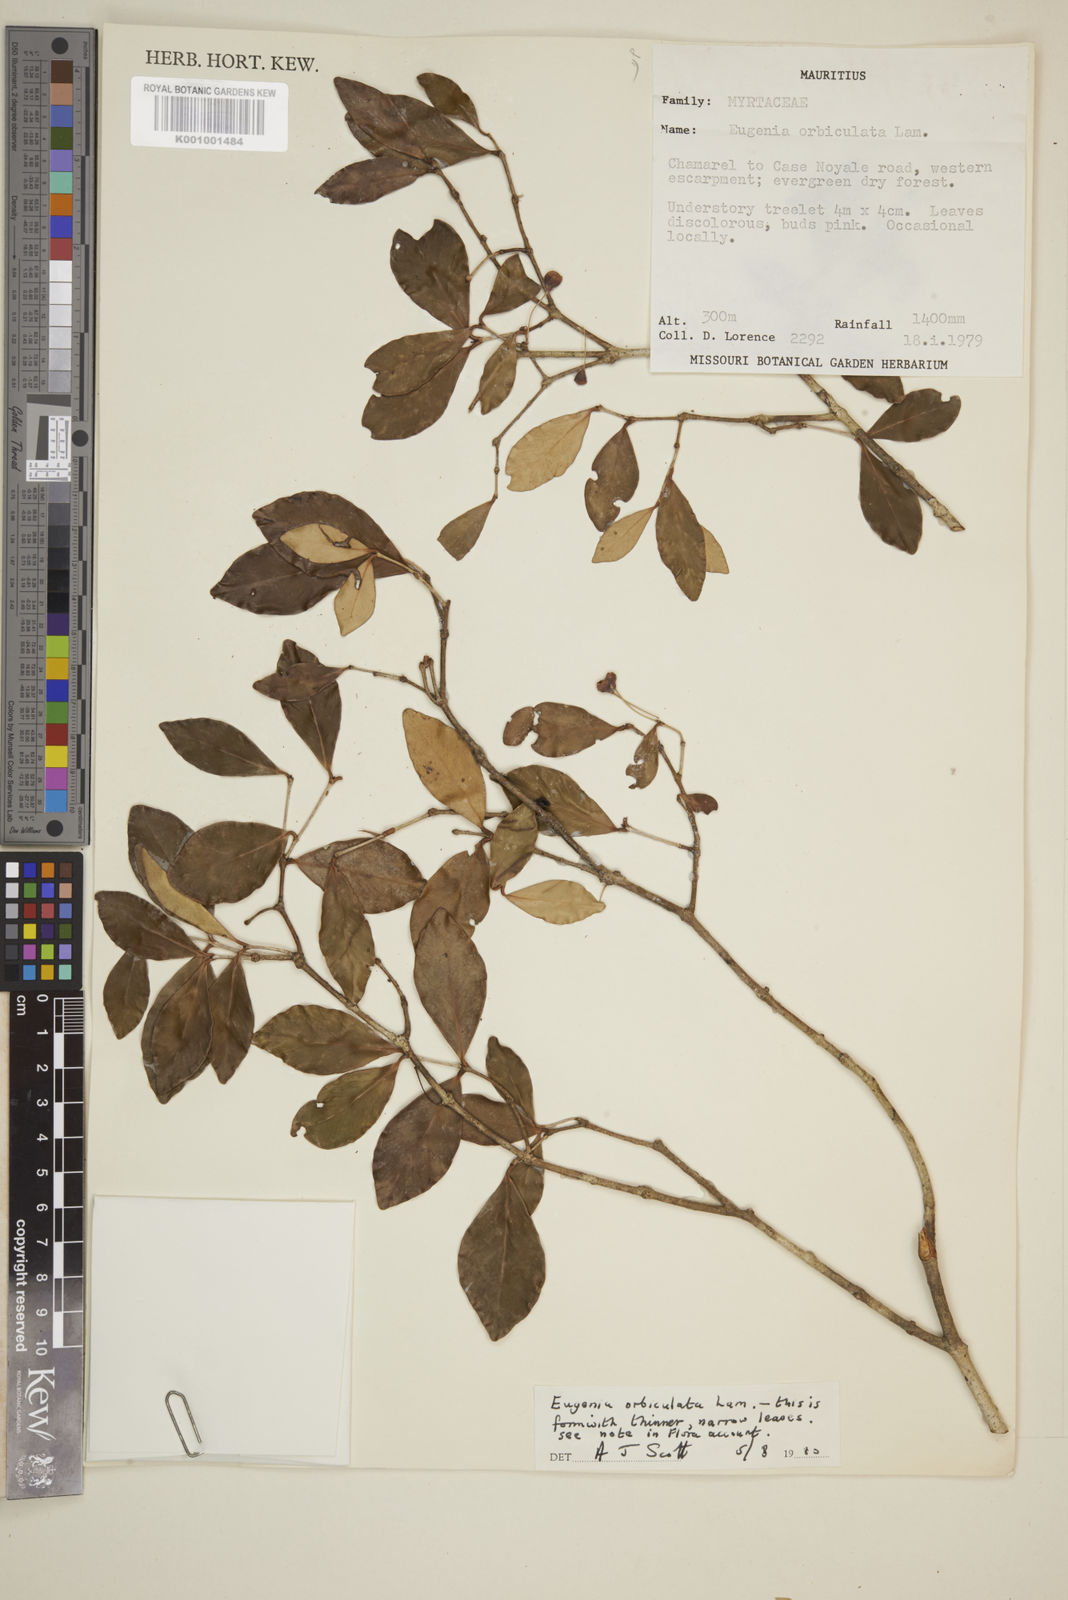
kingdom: Plantae
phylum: Tracheophyta
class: Magnoliopsida
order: Myrtales
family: Myrtaceae
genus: Eugenia
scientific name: Eugenia orbiculata
